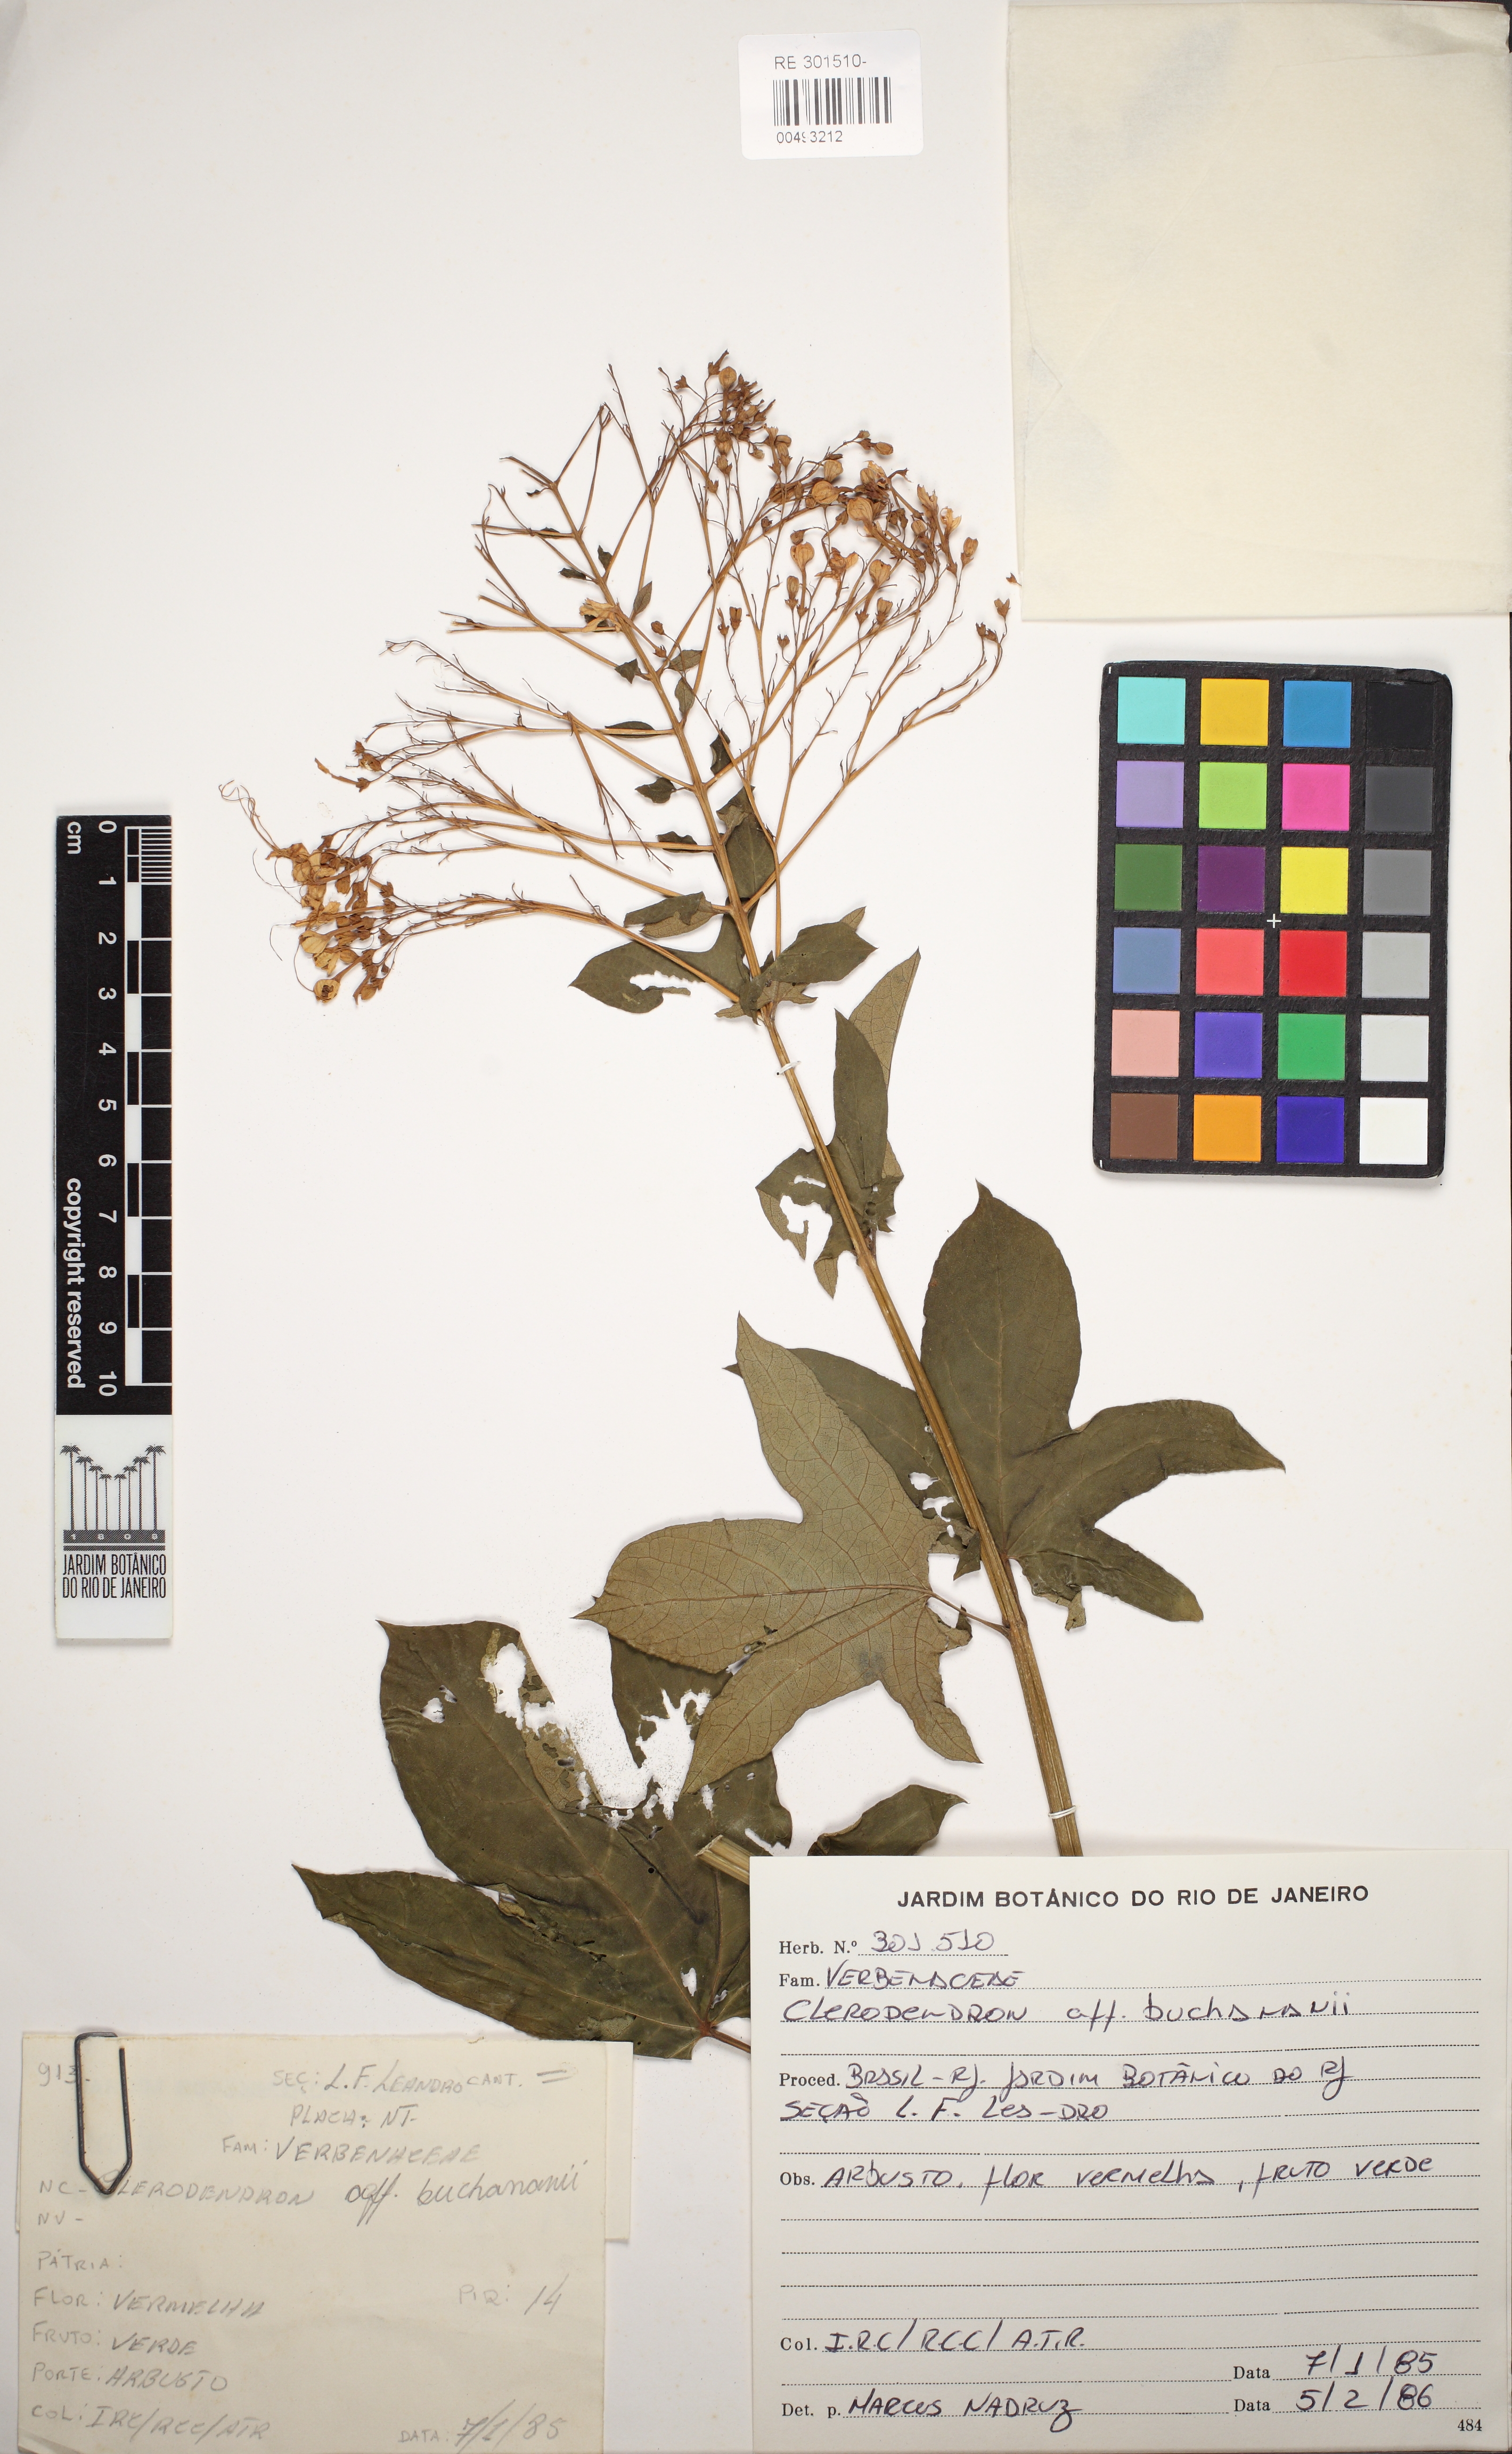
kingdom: Plantae
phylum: Tracheophyta
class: Magnoliopsida
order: Lamiales
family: Verbenaceae
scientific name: Verbenaceae
